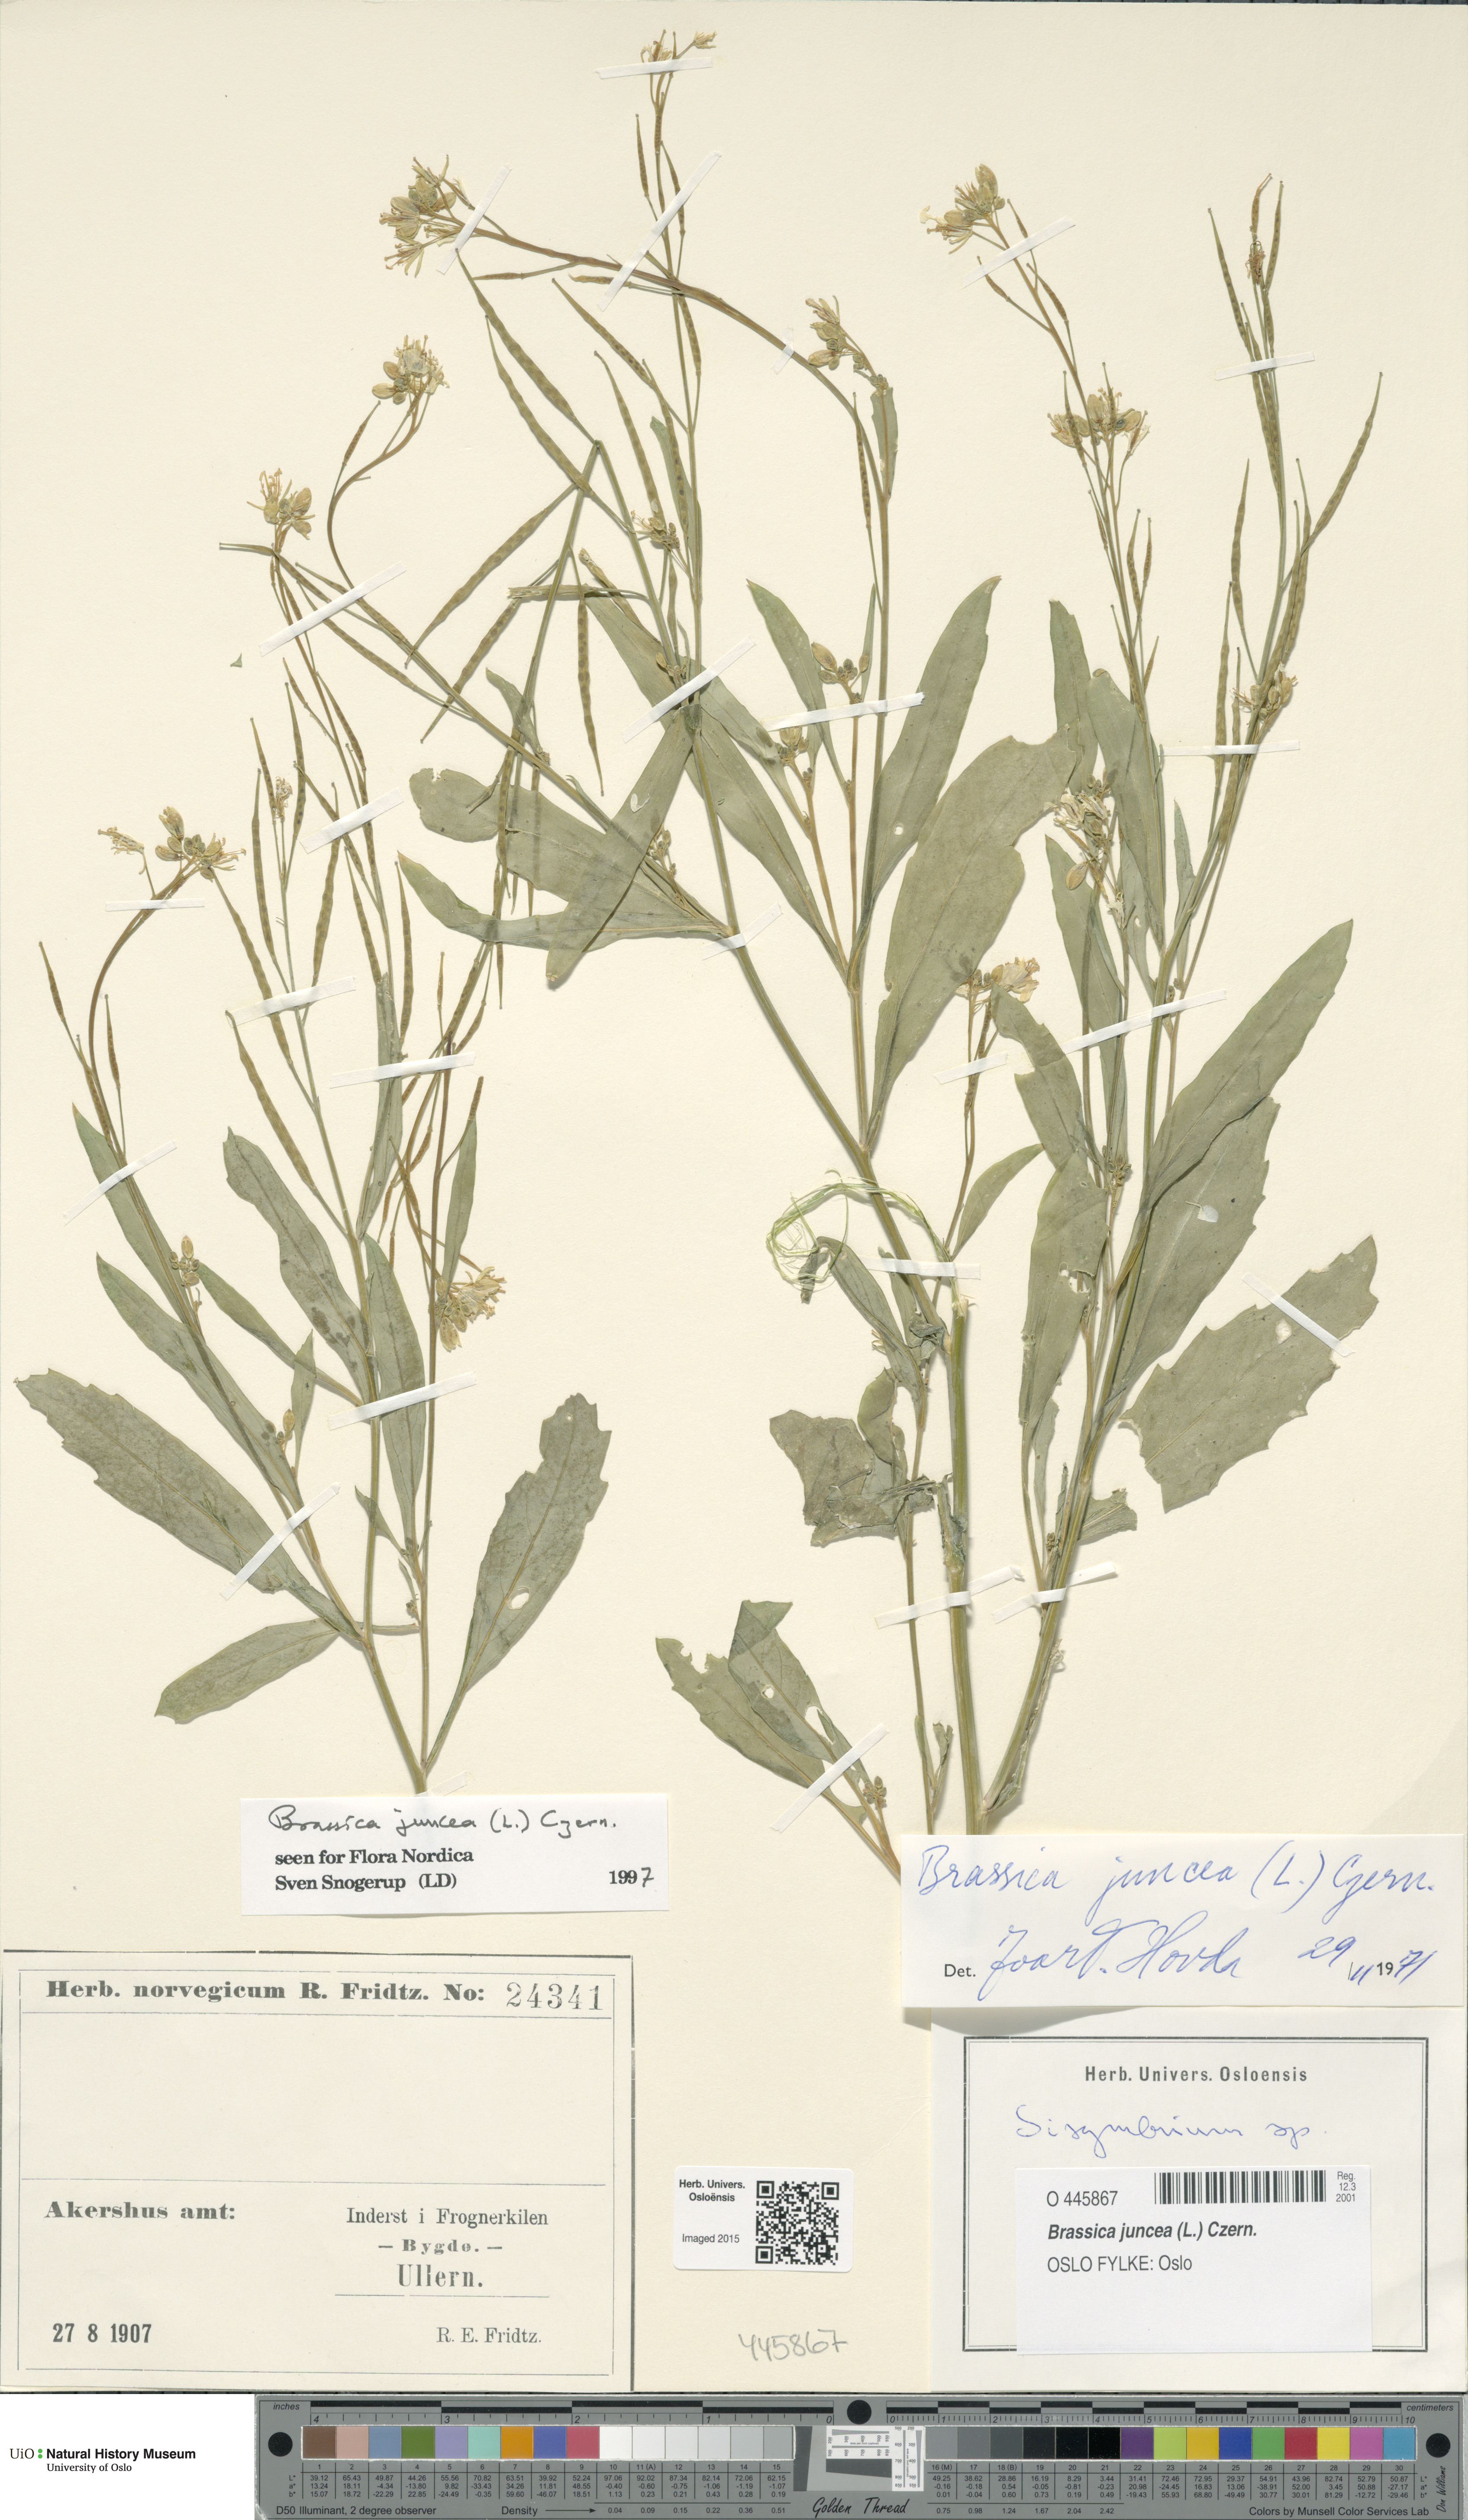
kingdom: Plantae
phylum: Tracheophyta
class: Magnoliopsida
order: Brassicales
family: Brassicaceae
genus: Brassica
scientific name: Brassica juncea
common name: Brown mustard
